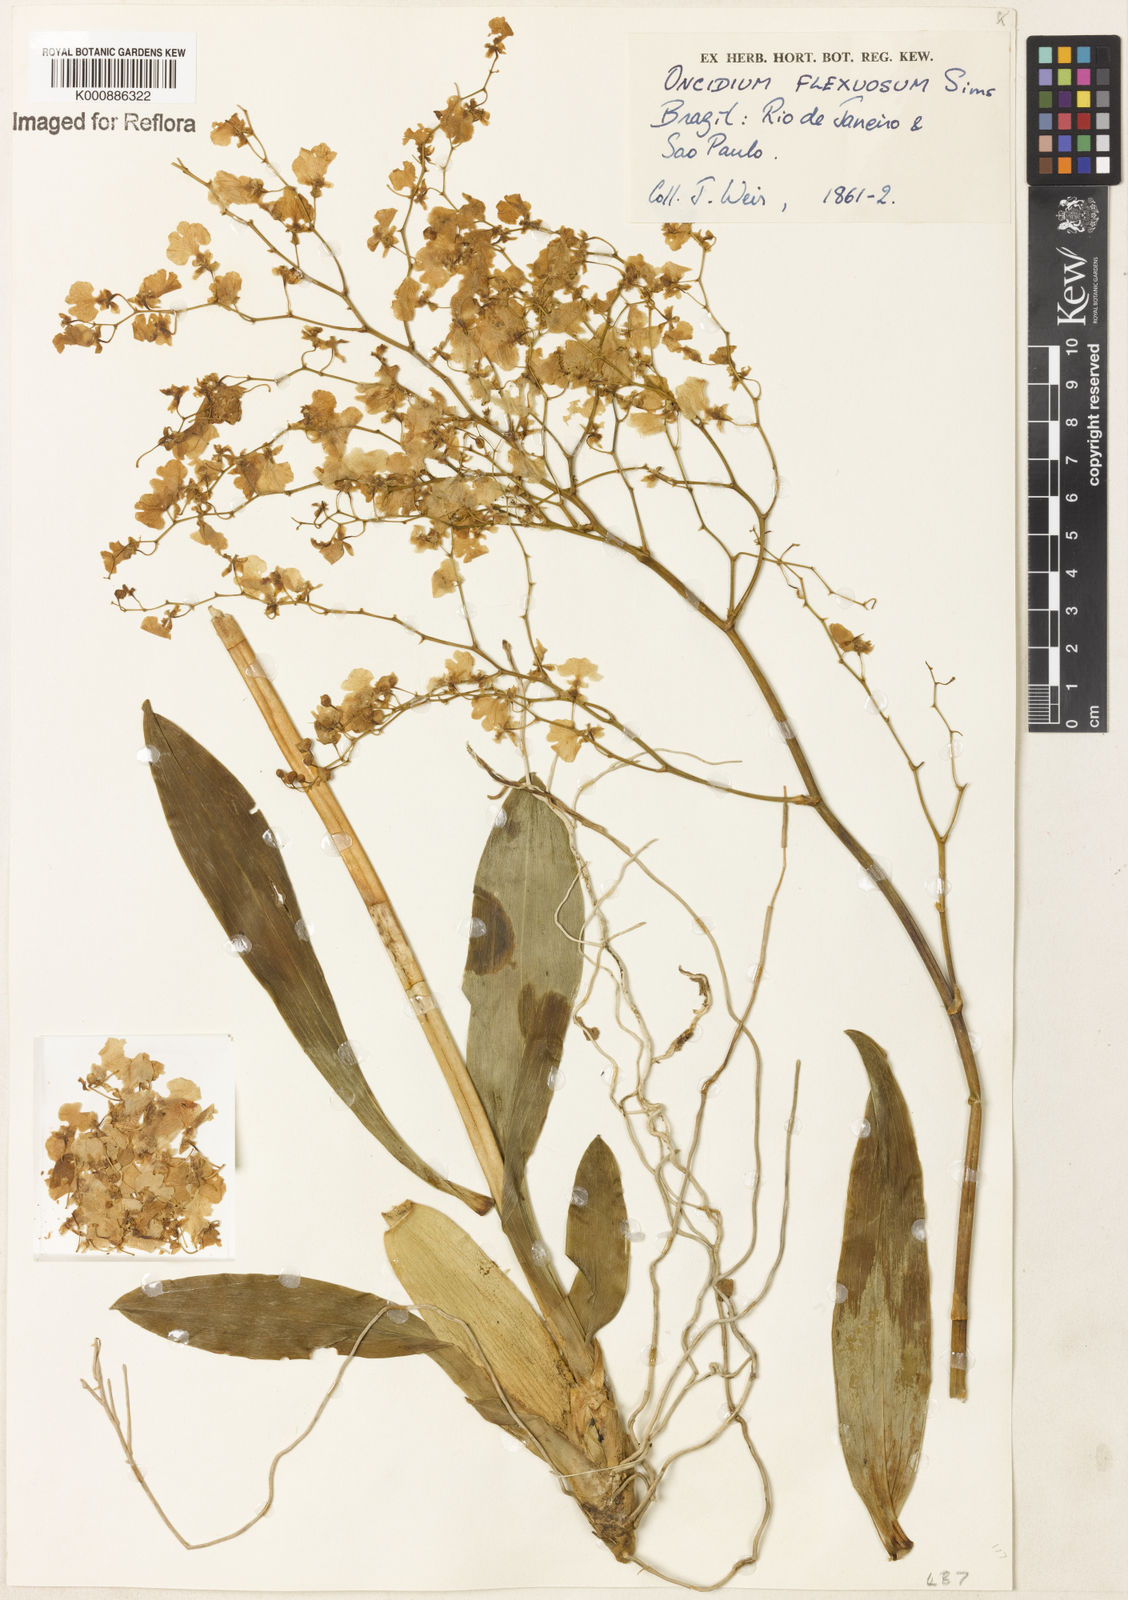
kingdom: Plantae
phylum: Tracheophyta
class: Liliopsida
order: Asparagales
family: Orchidaceae
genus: Gomesa
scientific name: Gomesa flexuosa
